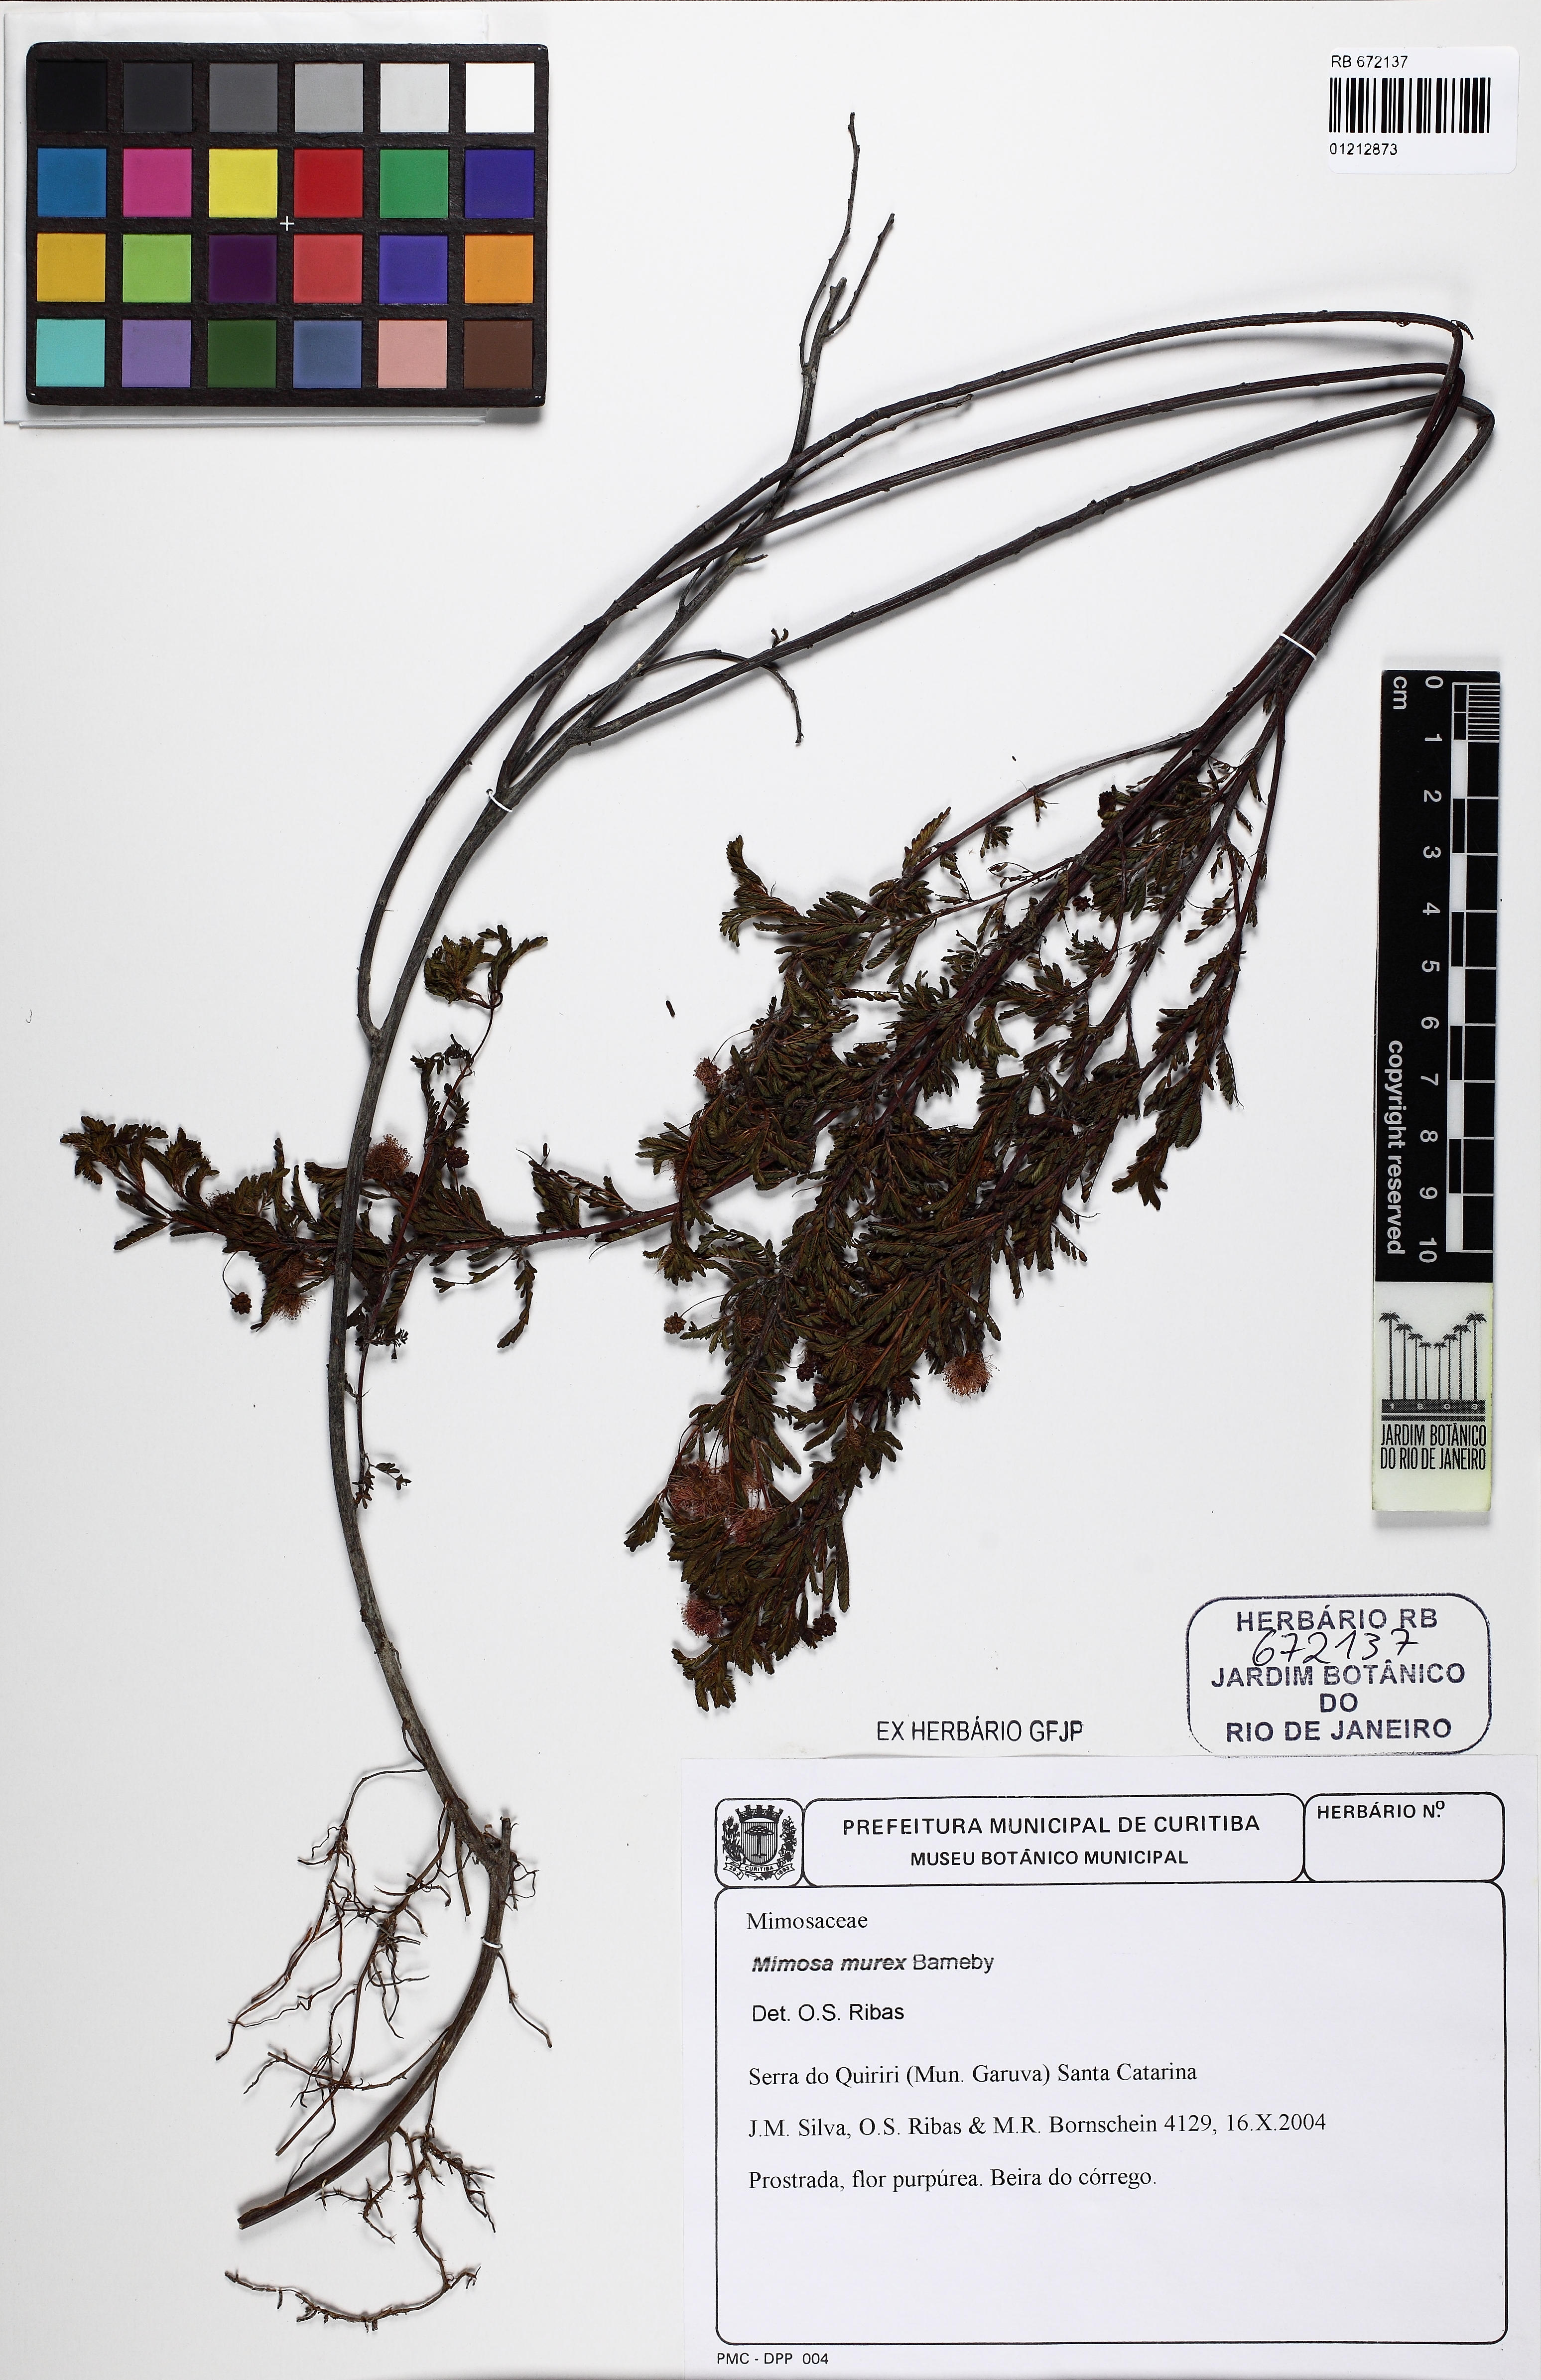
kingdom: Plantae
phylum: Tracheophyta
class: Magnoliopsida
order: Fabales
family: Fabaceae
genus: Mimosa
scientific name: Mimosa murex
